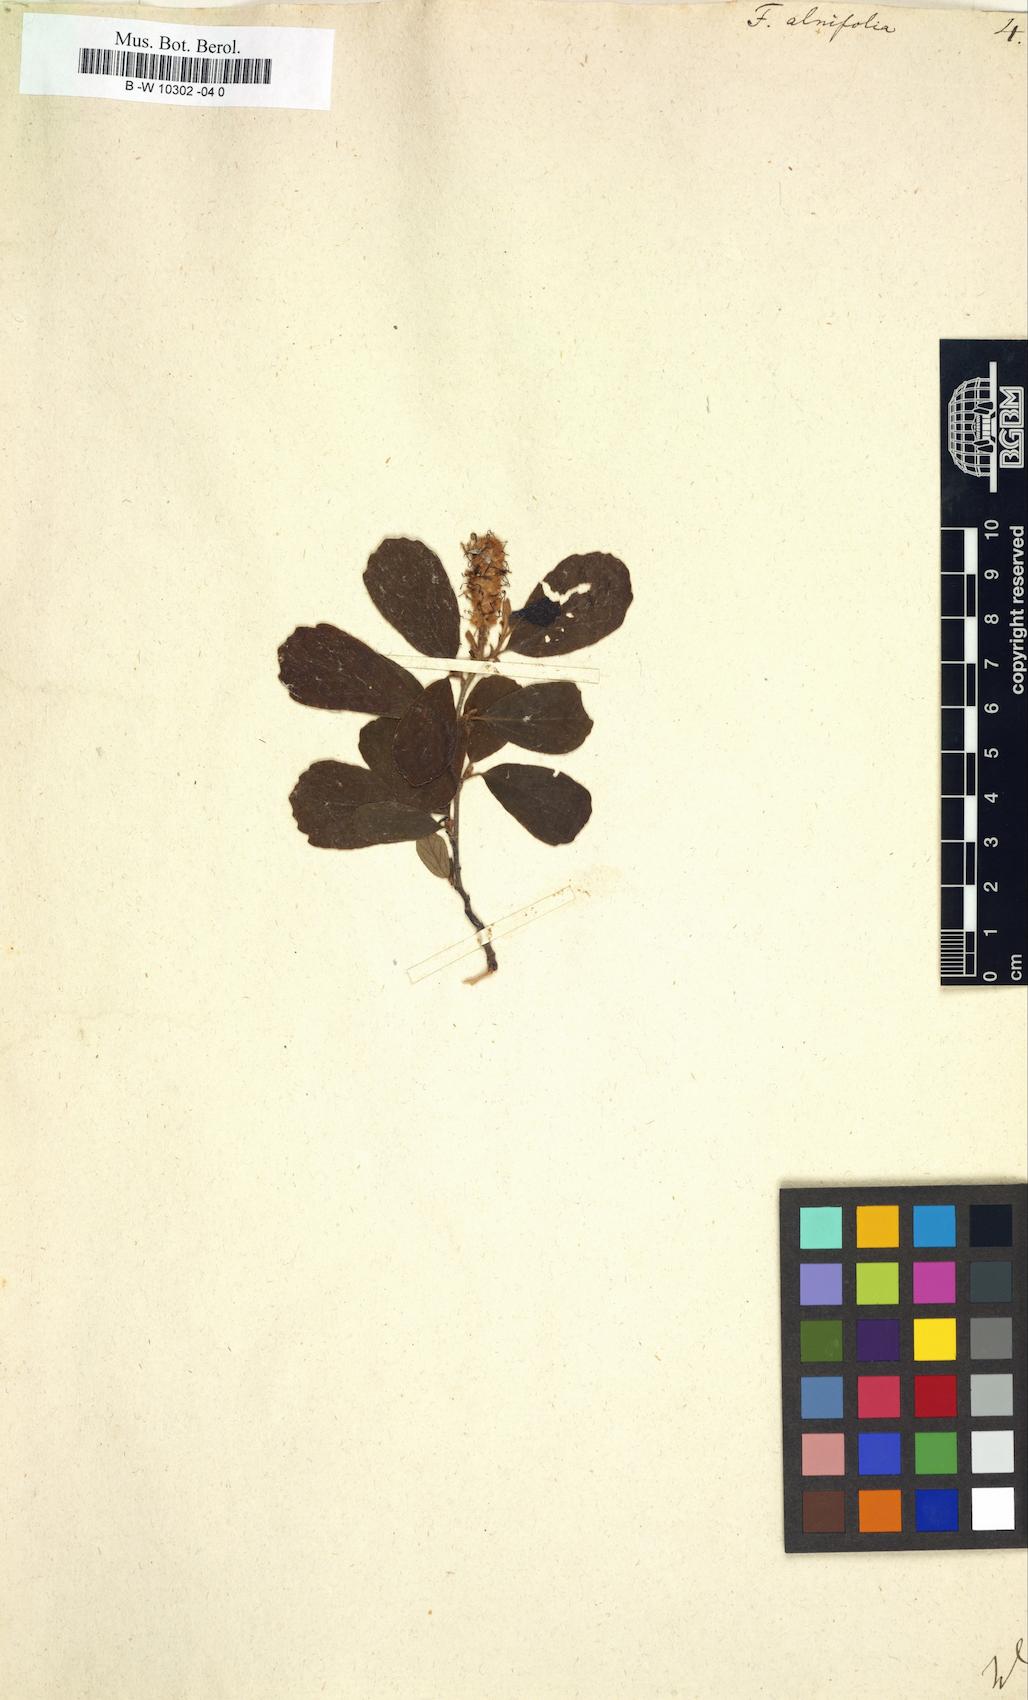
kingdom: Plantae
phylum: Tracheophyta
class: Magnoliopsida
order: Saxifragales
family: Hamamelidaceae
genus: Fothergilla
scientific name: Fothergilla gardenii
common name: Dwarf witch-alder
